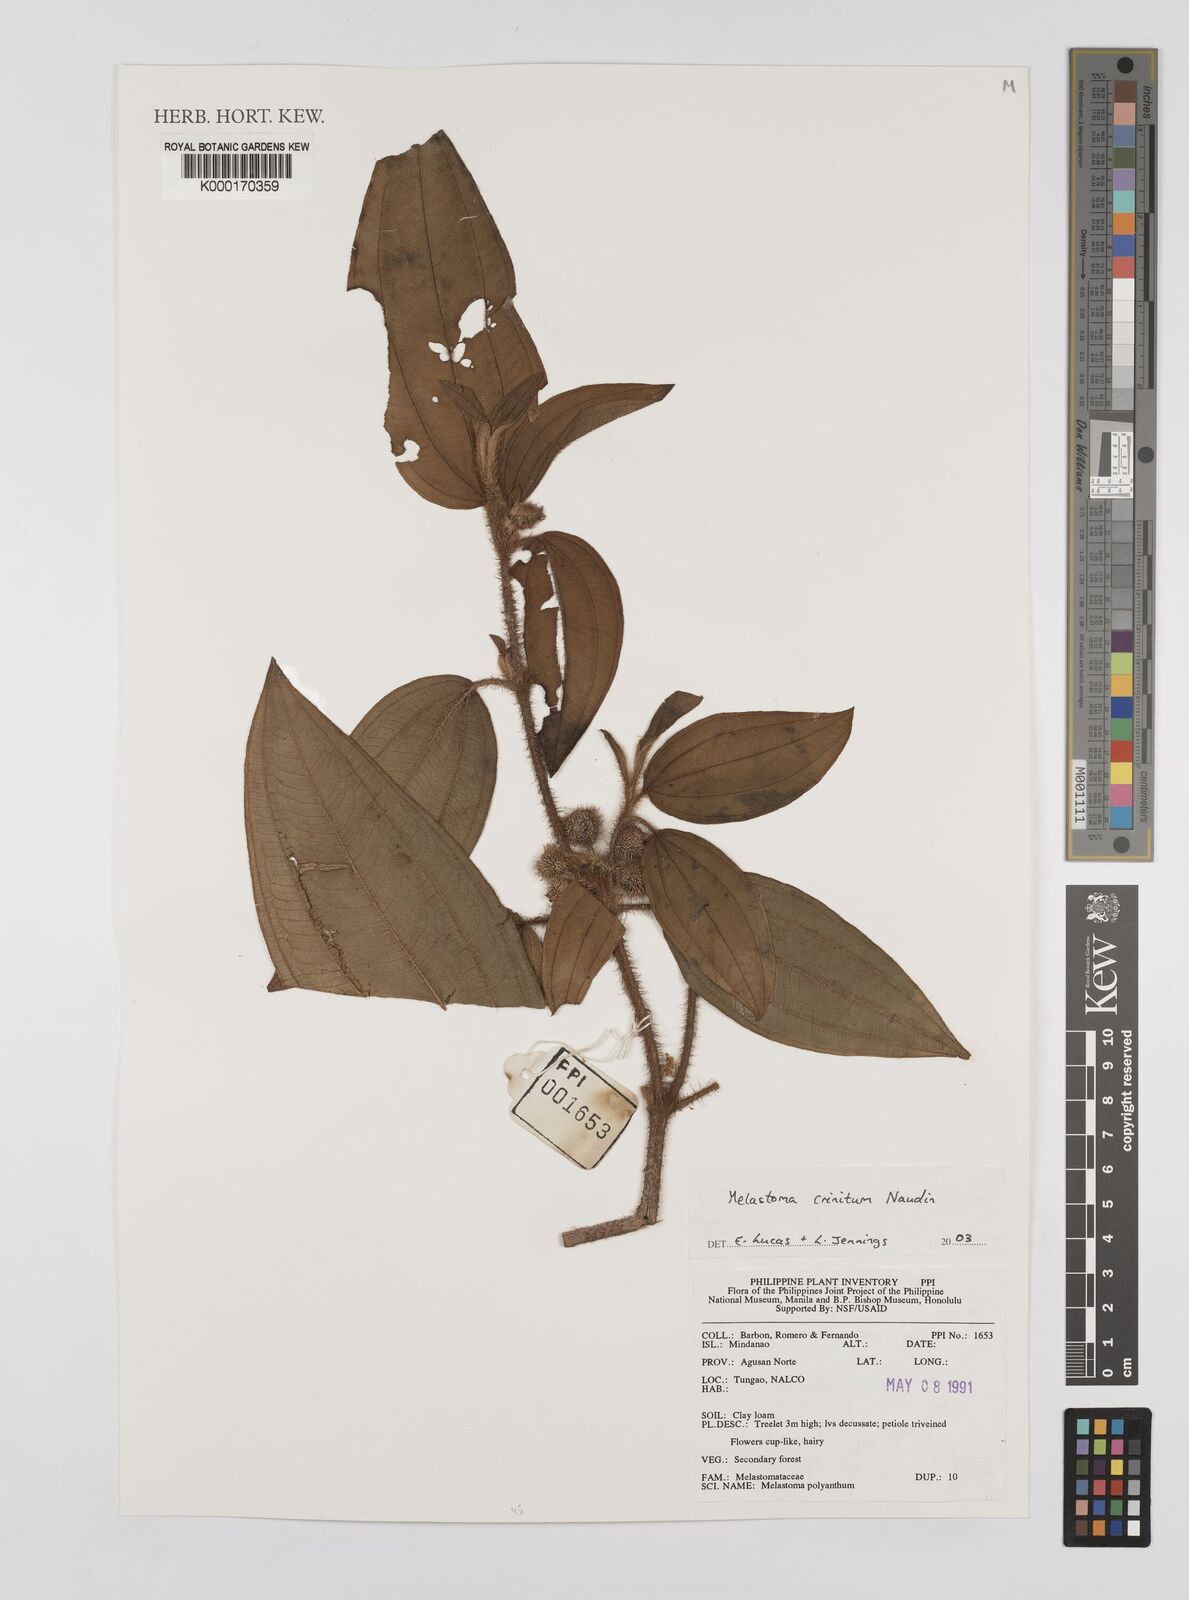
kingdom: Plantae
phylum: Tracheophyta
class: Magnoliopsida
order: Myrtales
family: Melastomataceae
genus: Melastoma
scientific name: Melastoma penicillatum
